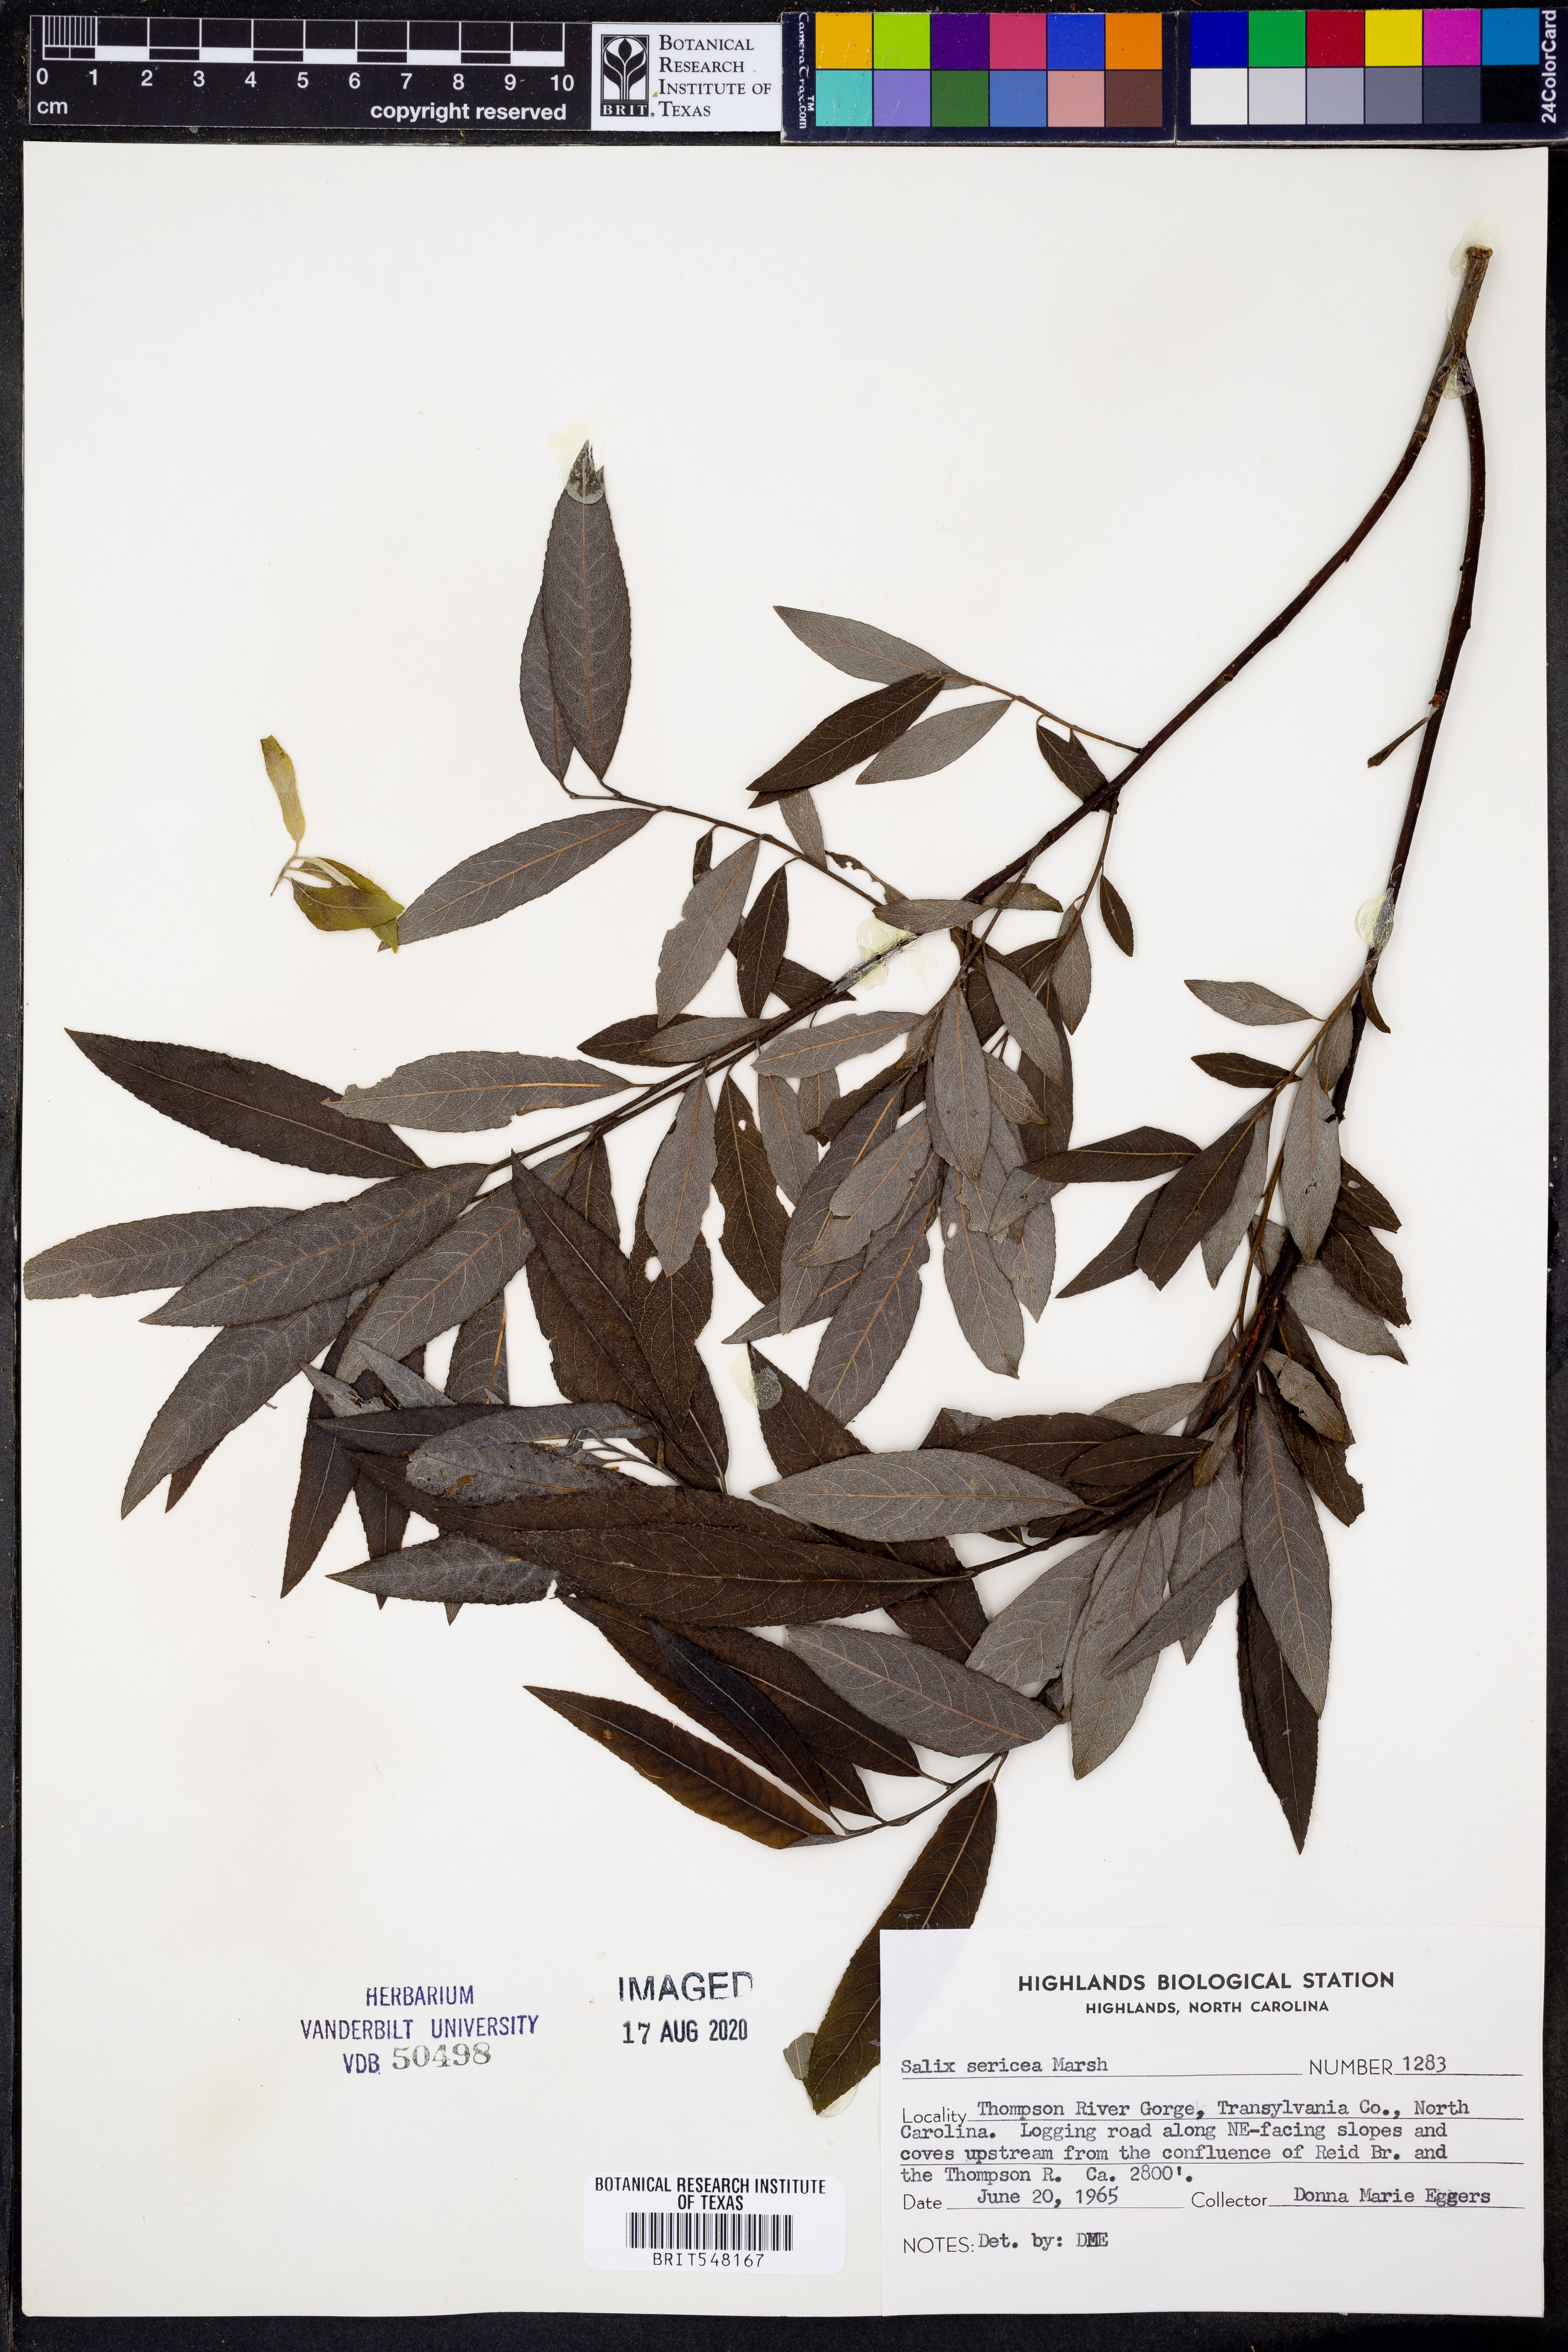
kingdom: Plantae
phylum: Tracheophyta
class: Magnoliopsida
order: Malpighiales
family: Salicaceae
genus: Salix
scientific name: Salix sericea
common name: Silky willow
